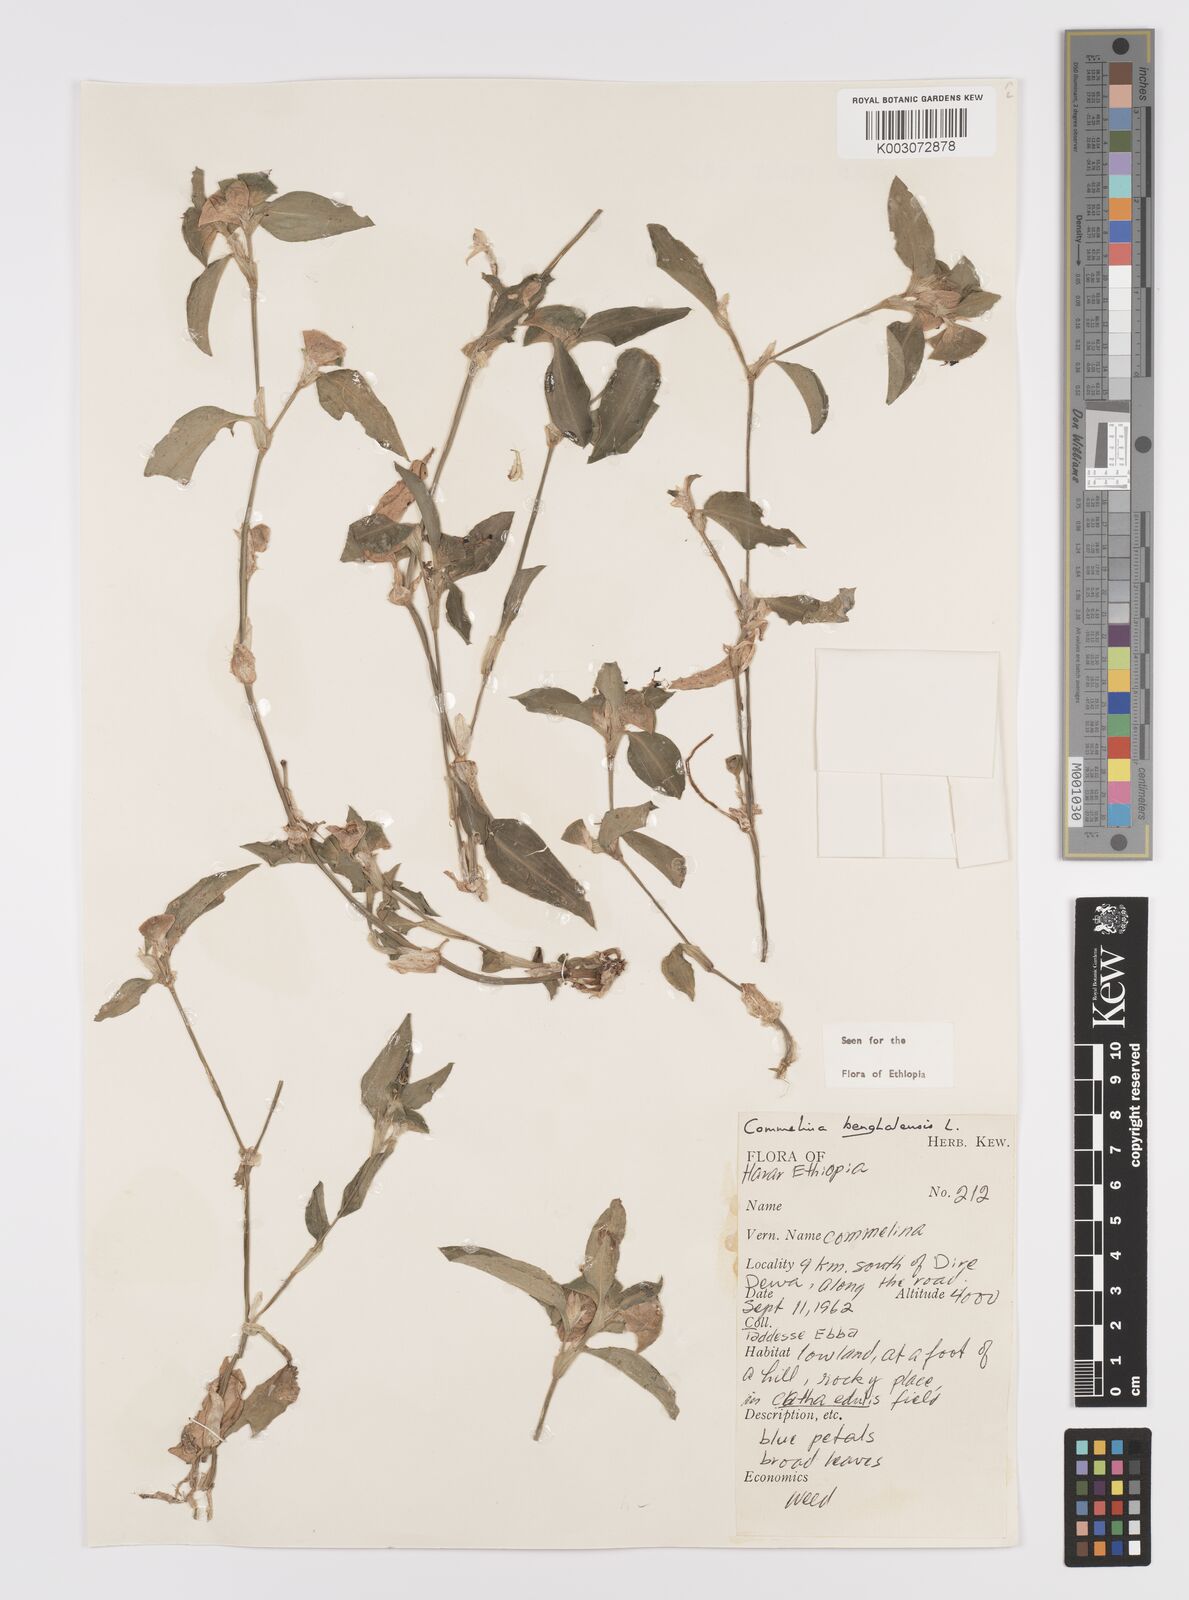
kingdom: Plantae
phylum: Tracheophyta
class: Liliopsida
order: Commelinales
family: Commelinaceae
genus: Commelina
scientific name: Commelina benghalensis
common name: Jio
